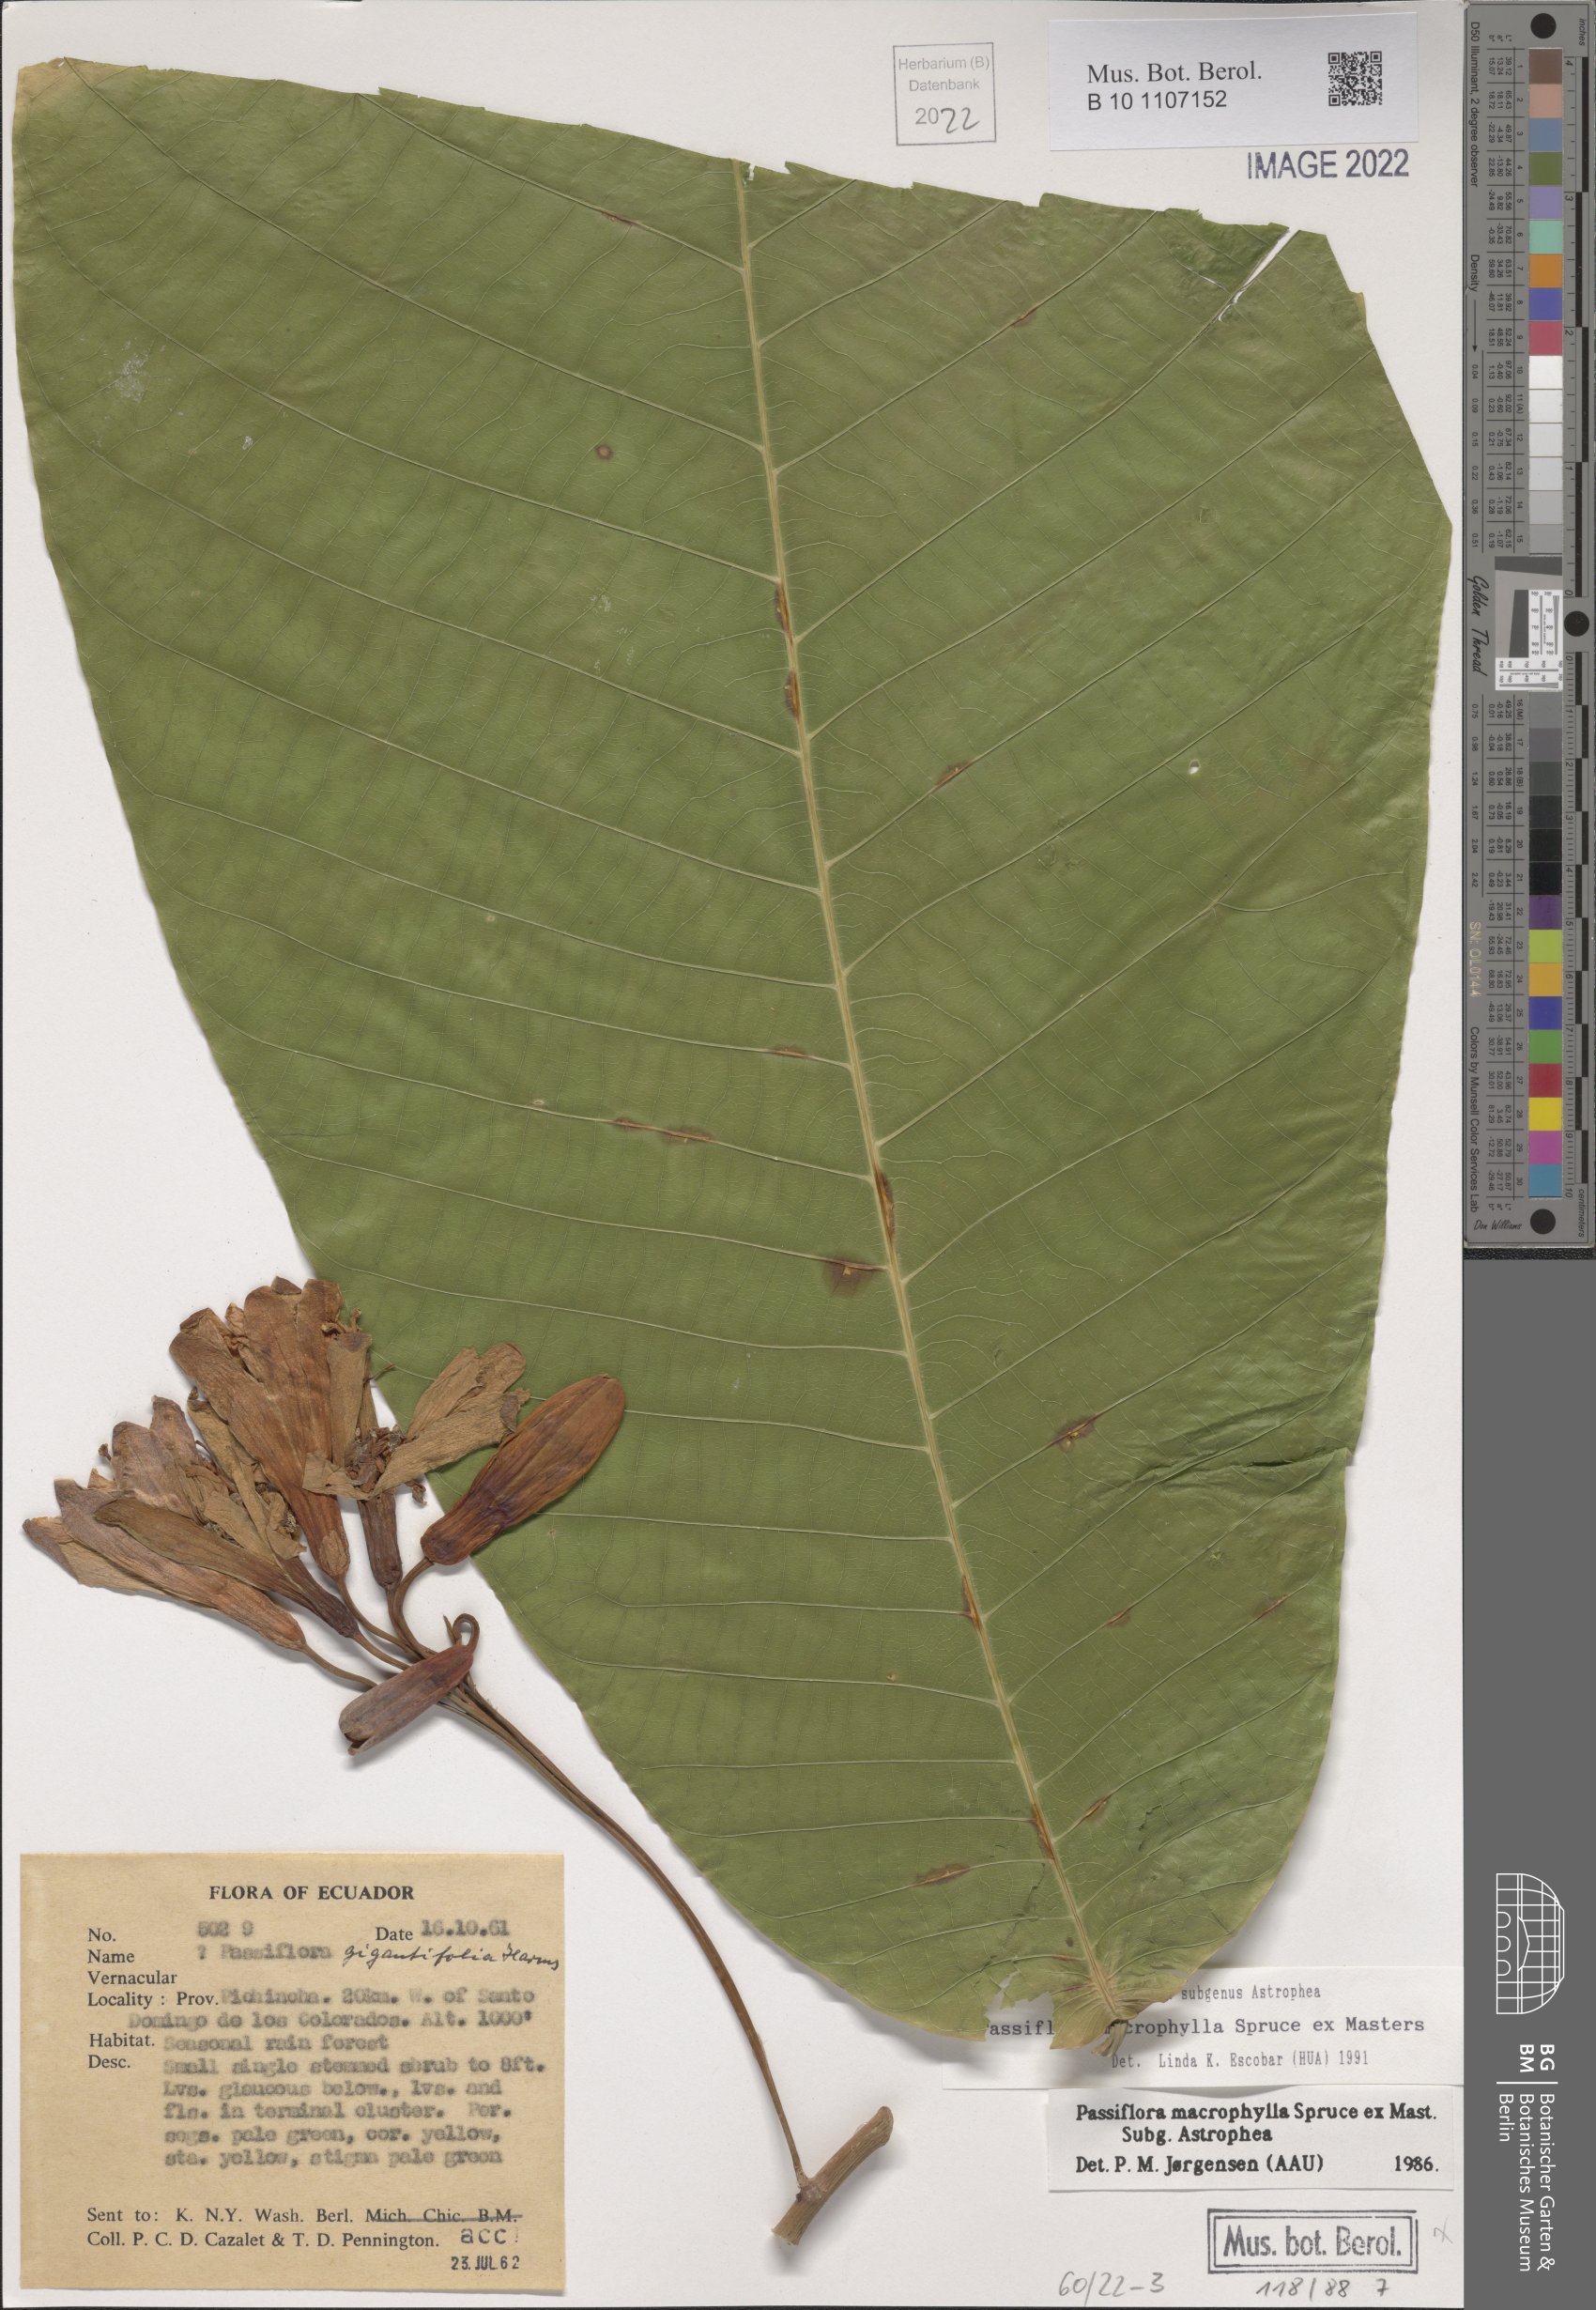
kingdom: Plantae
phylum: Tracheophyta
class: Magnoliopsida
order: Malpighiales
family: Passifloraceae
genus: Passiflora
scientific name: Passiflora macrophylla
